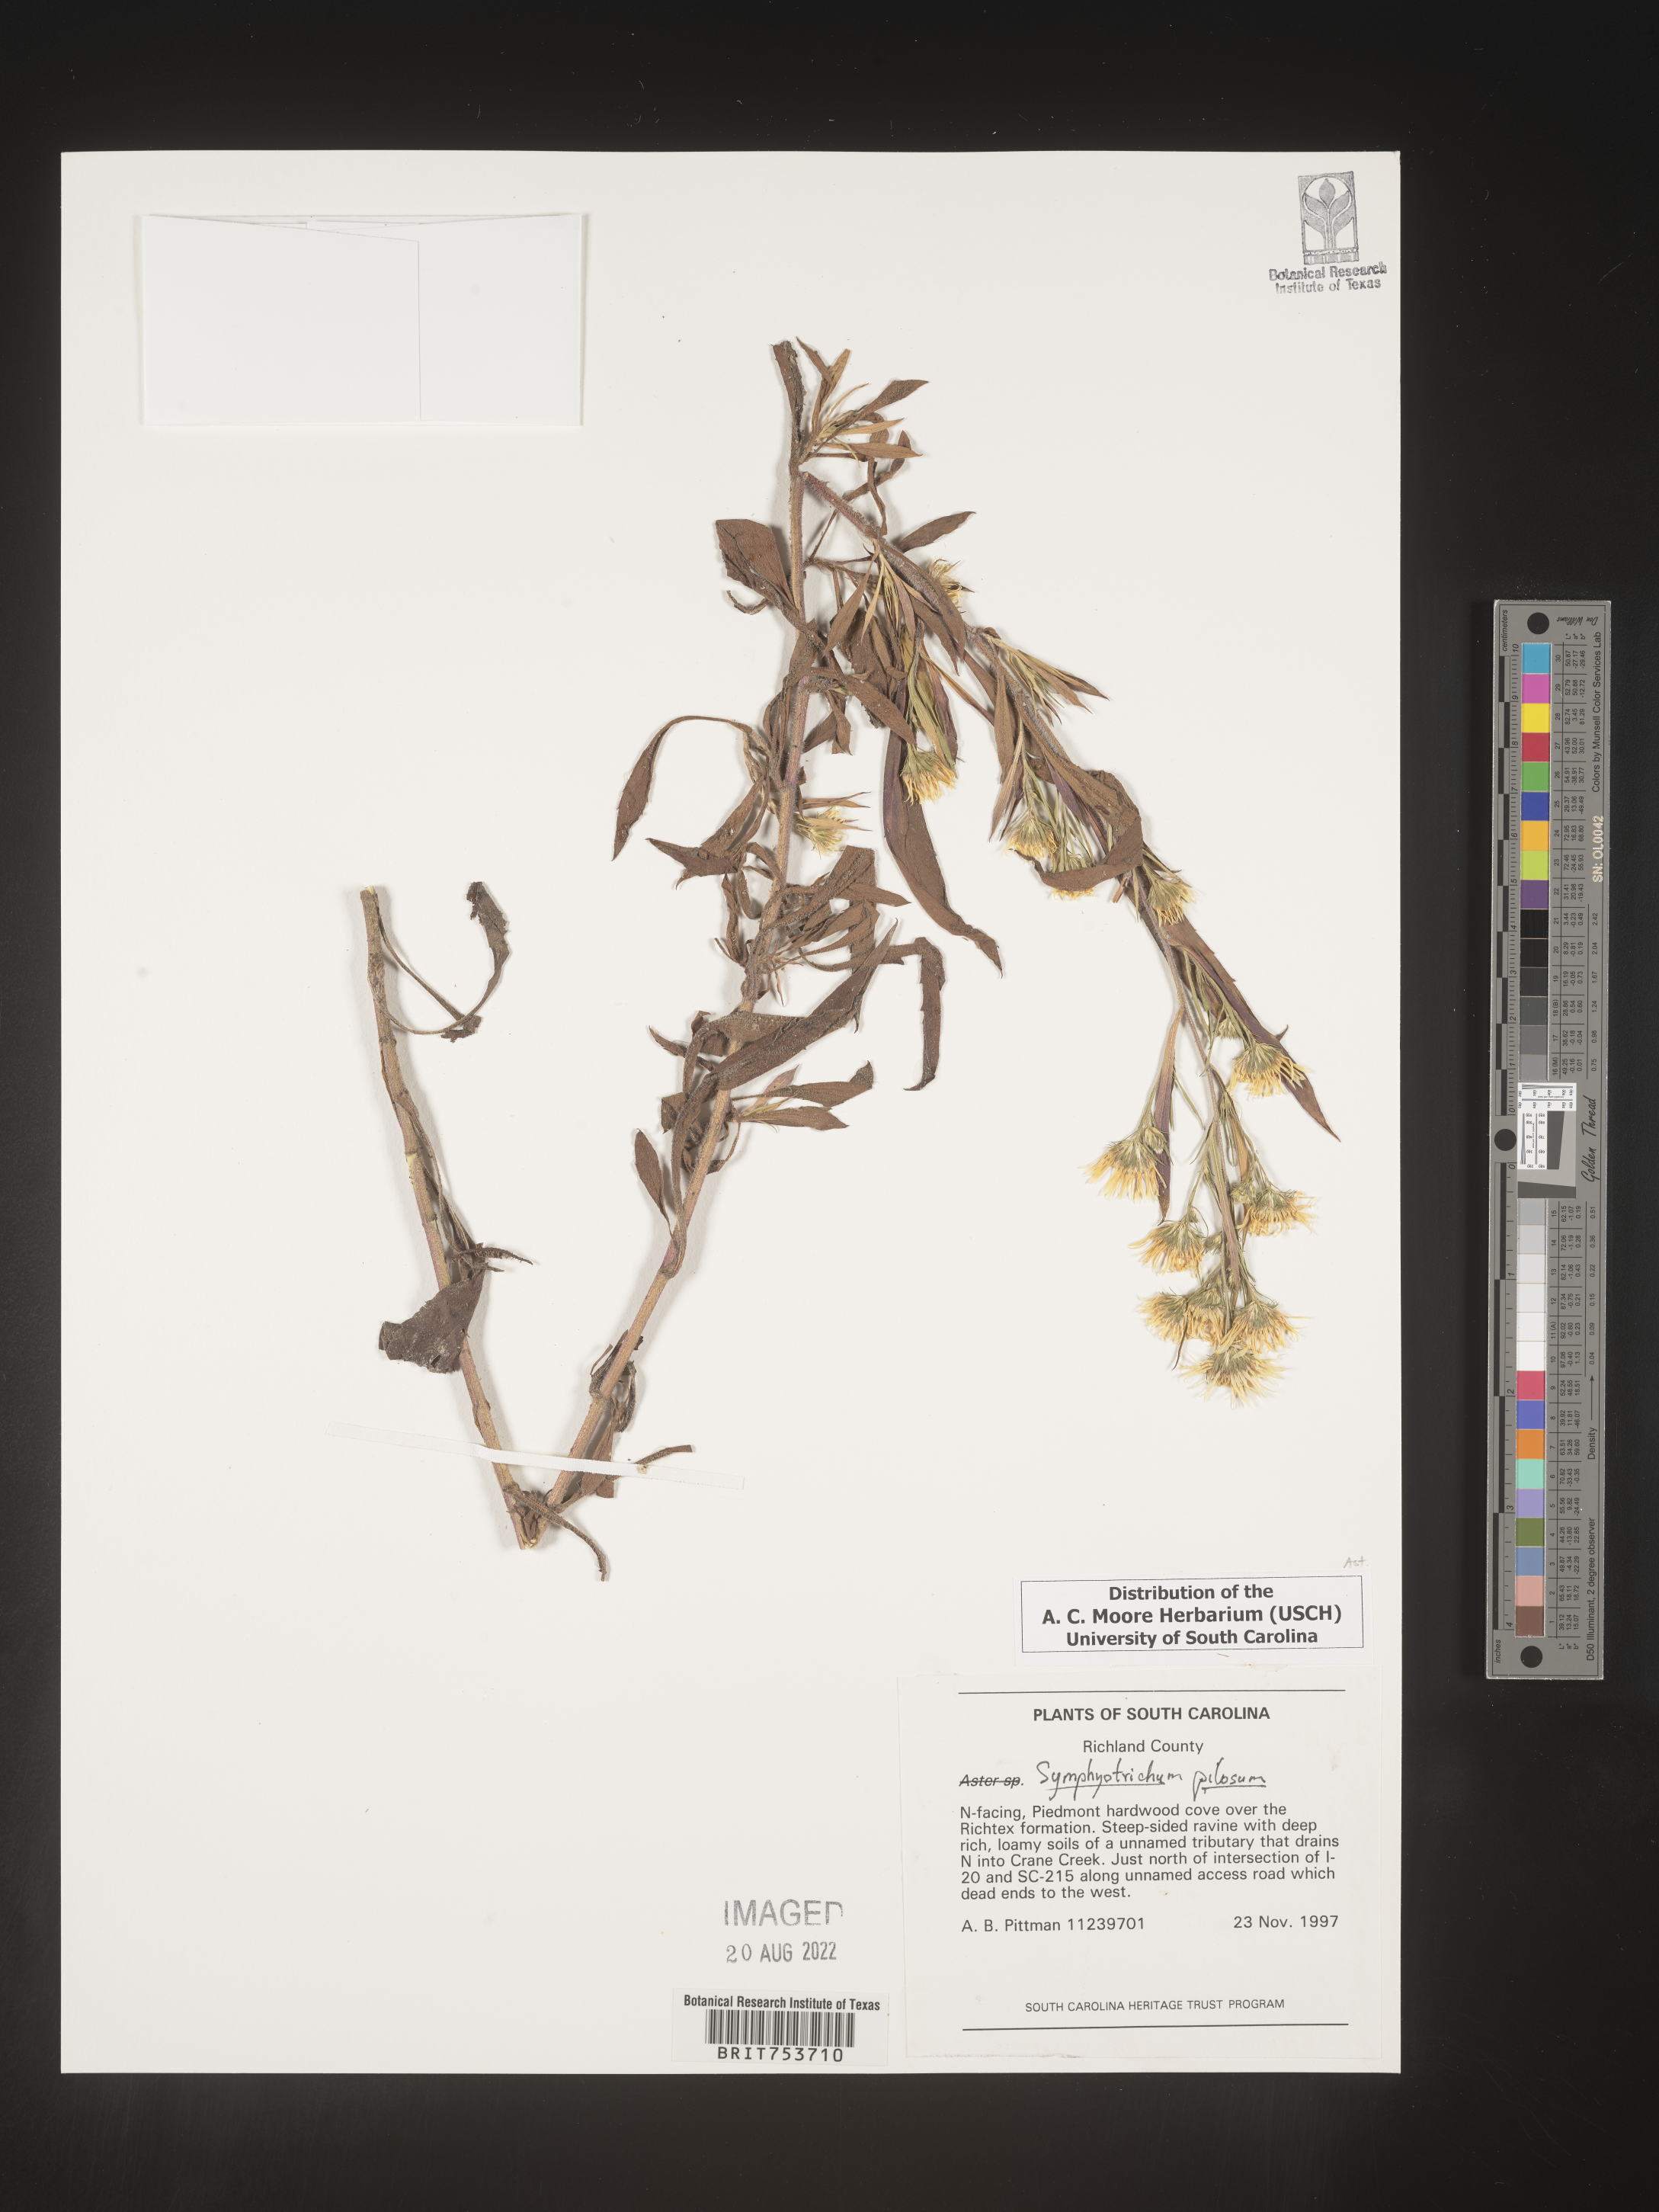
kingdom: Plantae
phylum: Tracheophyta
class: Magnoliopsida
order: Asterales
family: Asteraceae
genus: Symphyotrichum
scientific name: Symphyotrichum pilosum
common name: Awl aster
